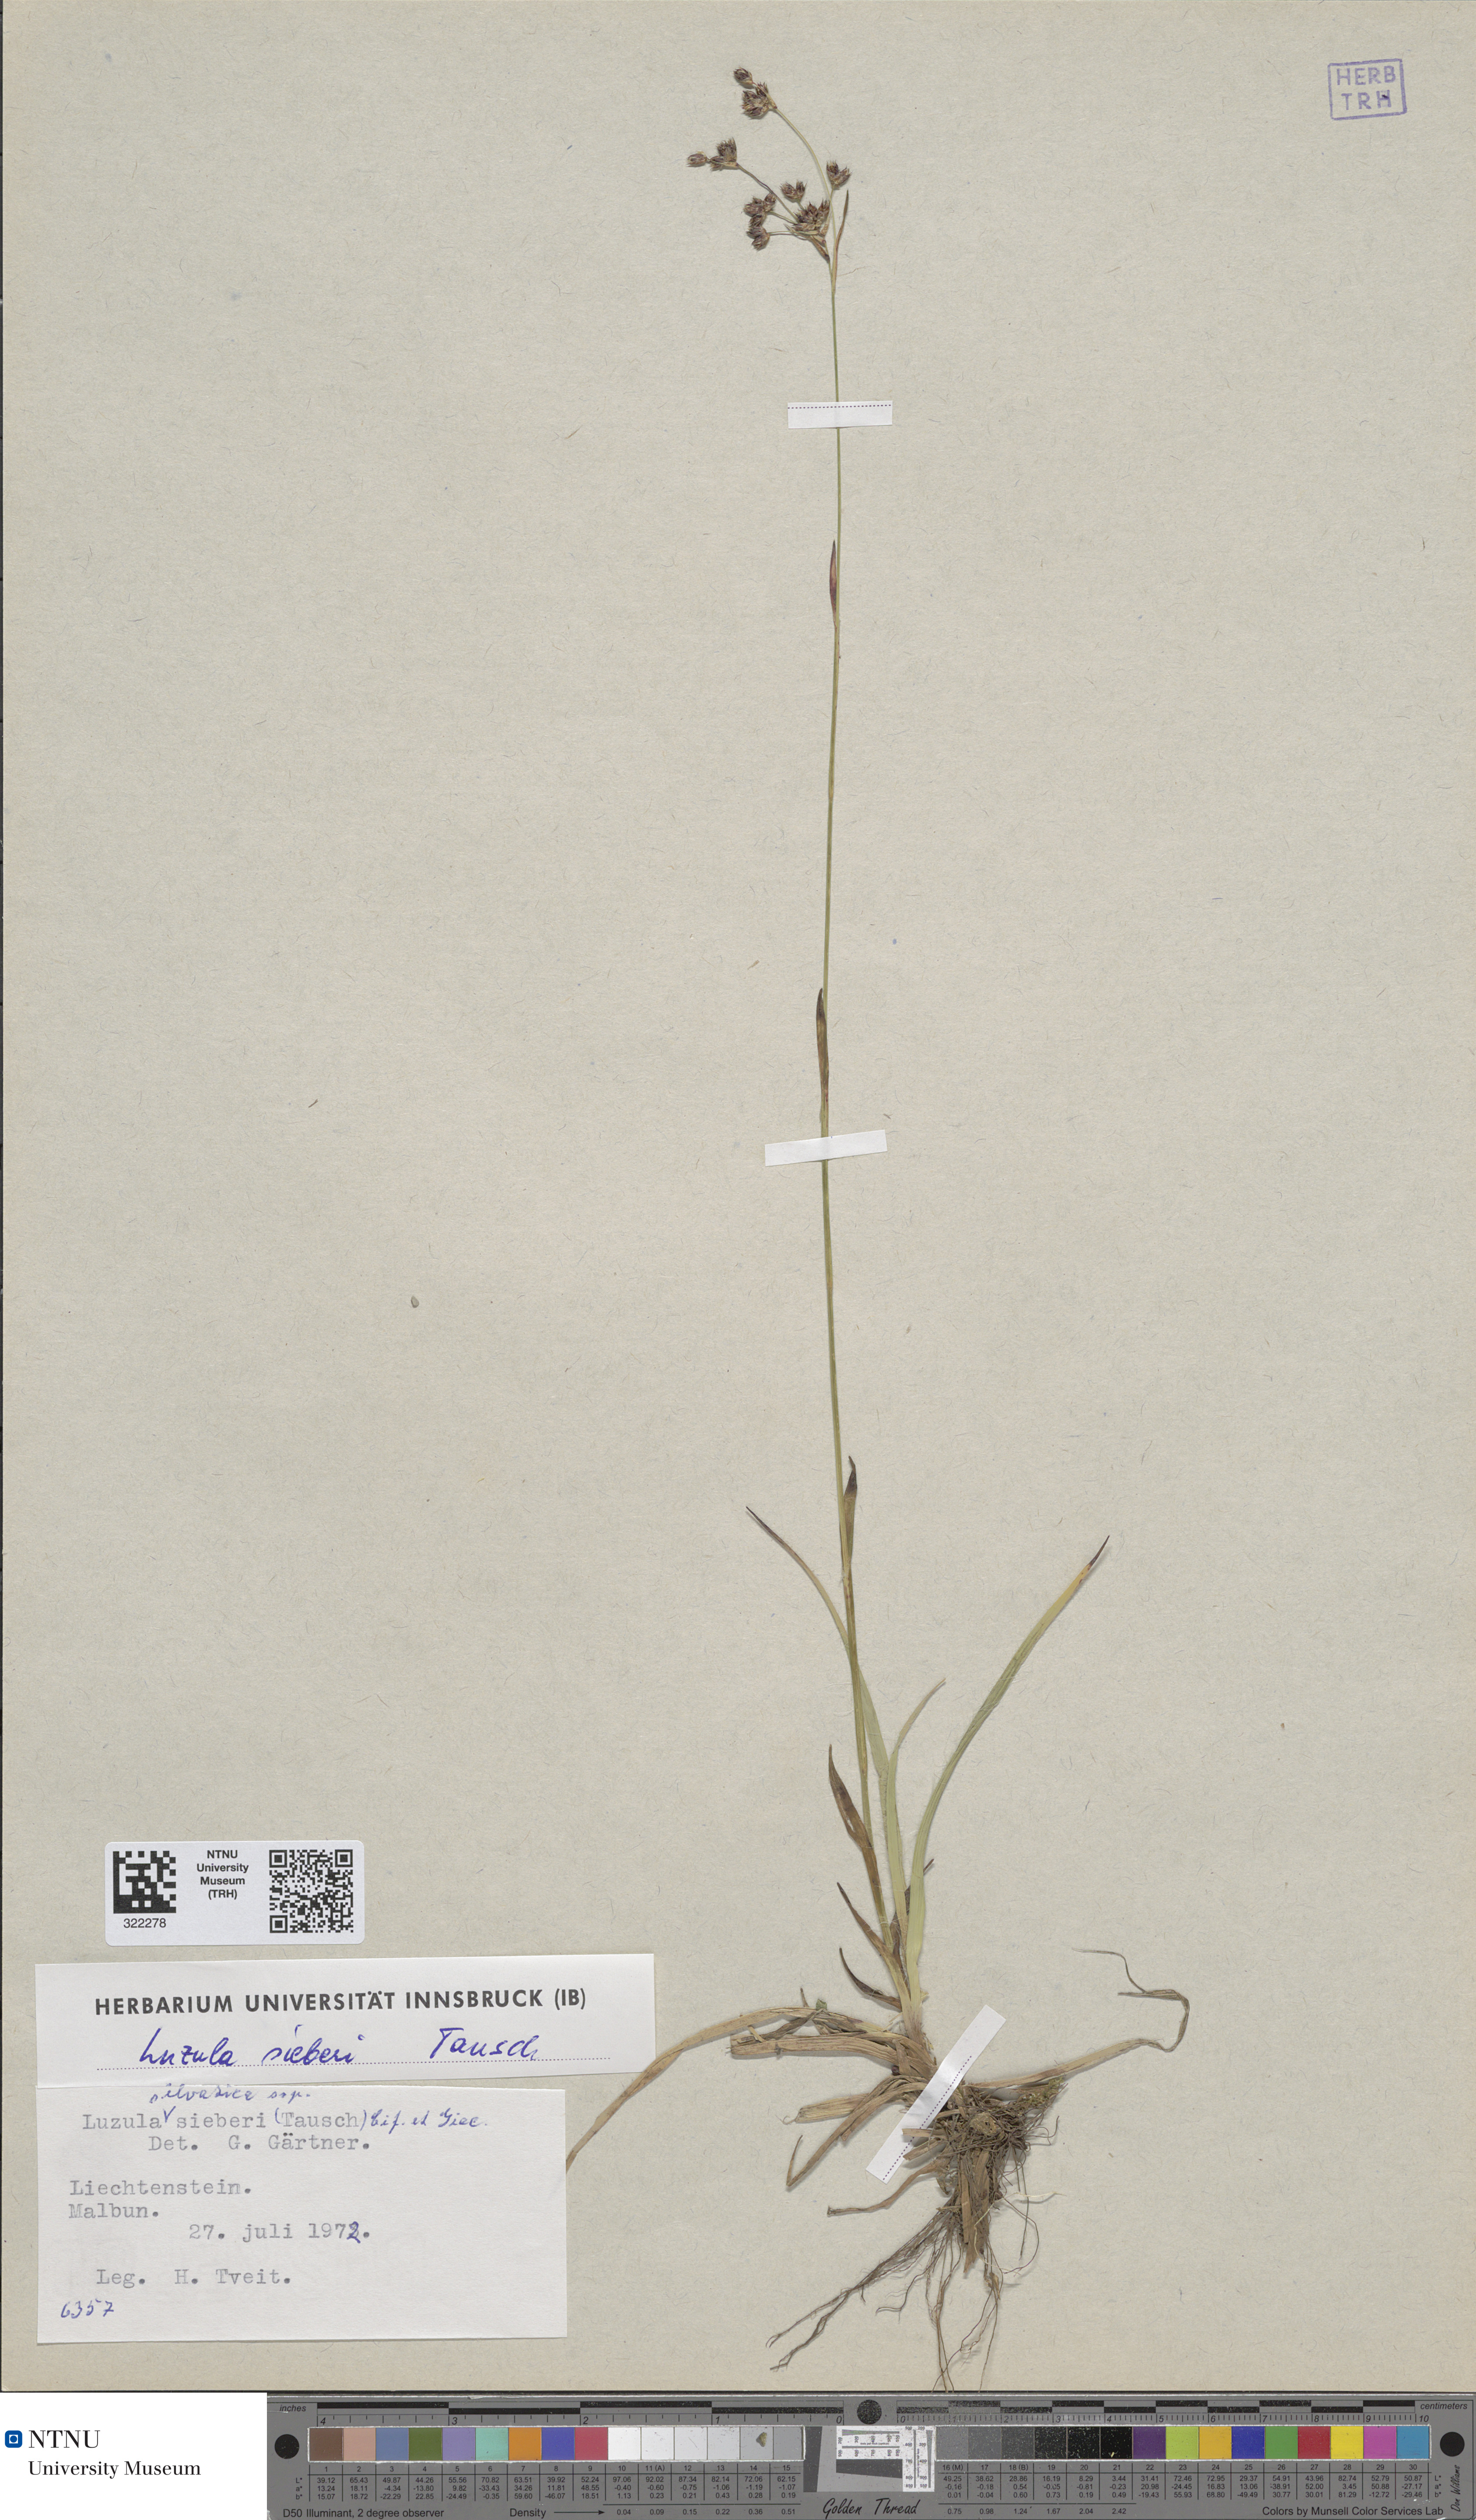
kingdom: Plantae
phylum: Tracheophyta
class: Liliopsida
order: Poales
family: Juncaceae
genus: Luzula
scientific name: Luzula sylvatica
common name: Great wood-rush
